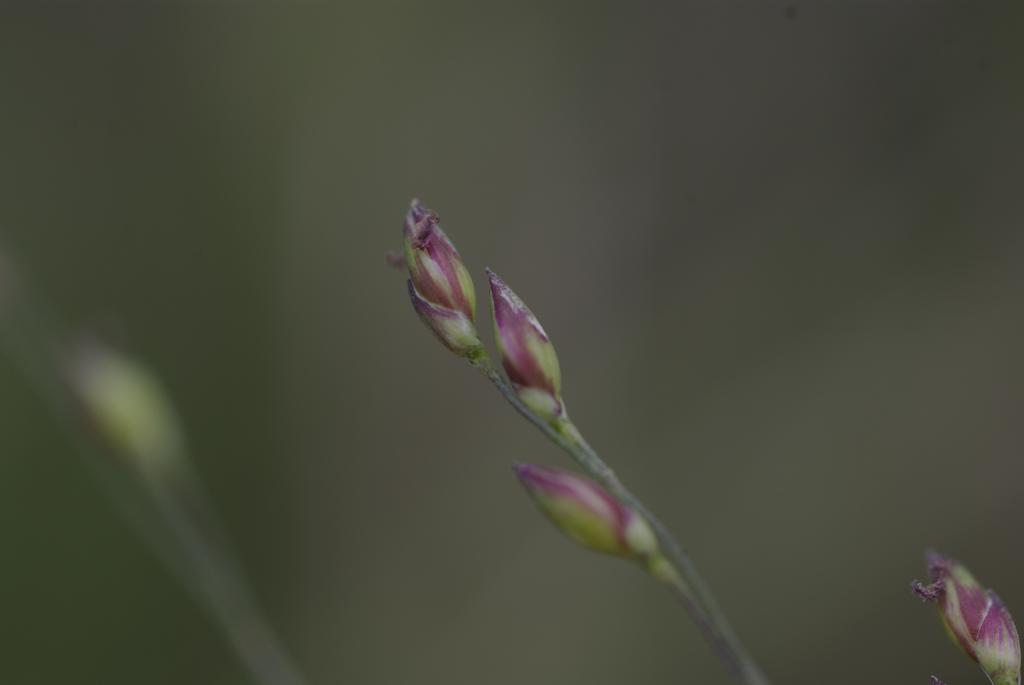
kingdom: Plantae
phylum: Tracheophyta
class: Liliopsida
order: Poales
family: Poaceae
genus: Panicum
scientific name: Panicum curviflorum
